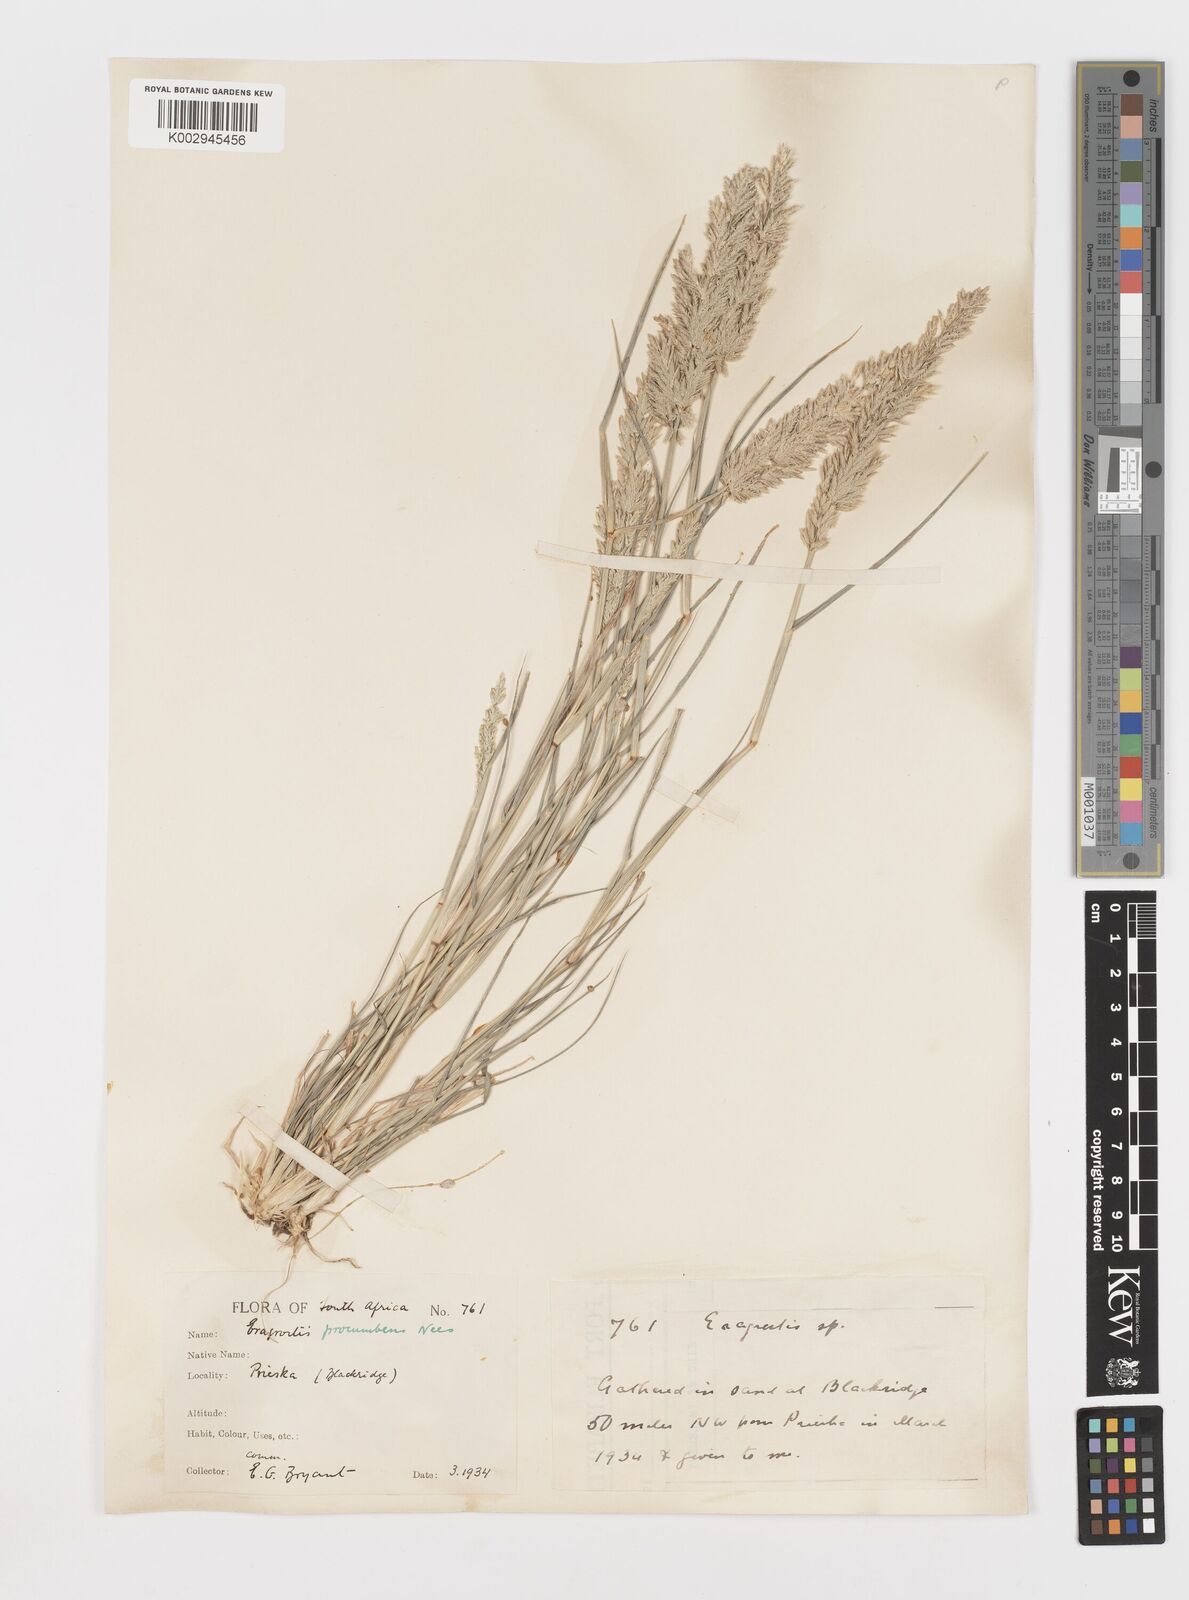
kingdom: Plantae
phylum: Tracheophyta
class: Liliopsida
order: Poales
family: Poaceae
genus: Eragrostis
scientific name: Eragrostis procumbens
